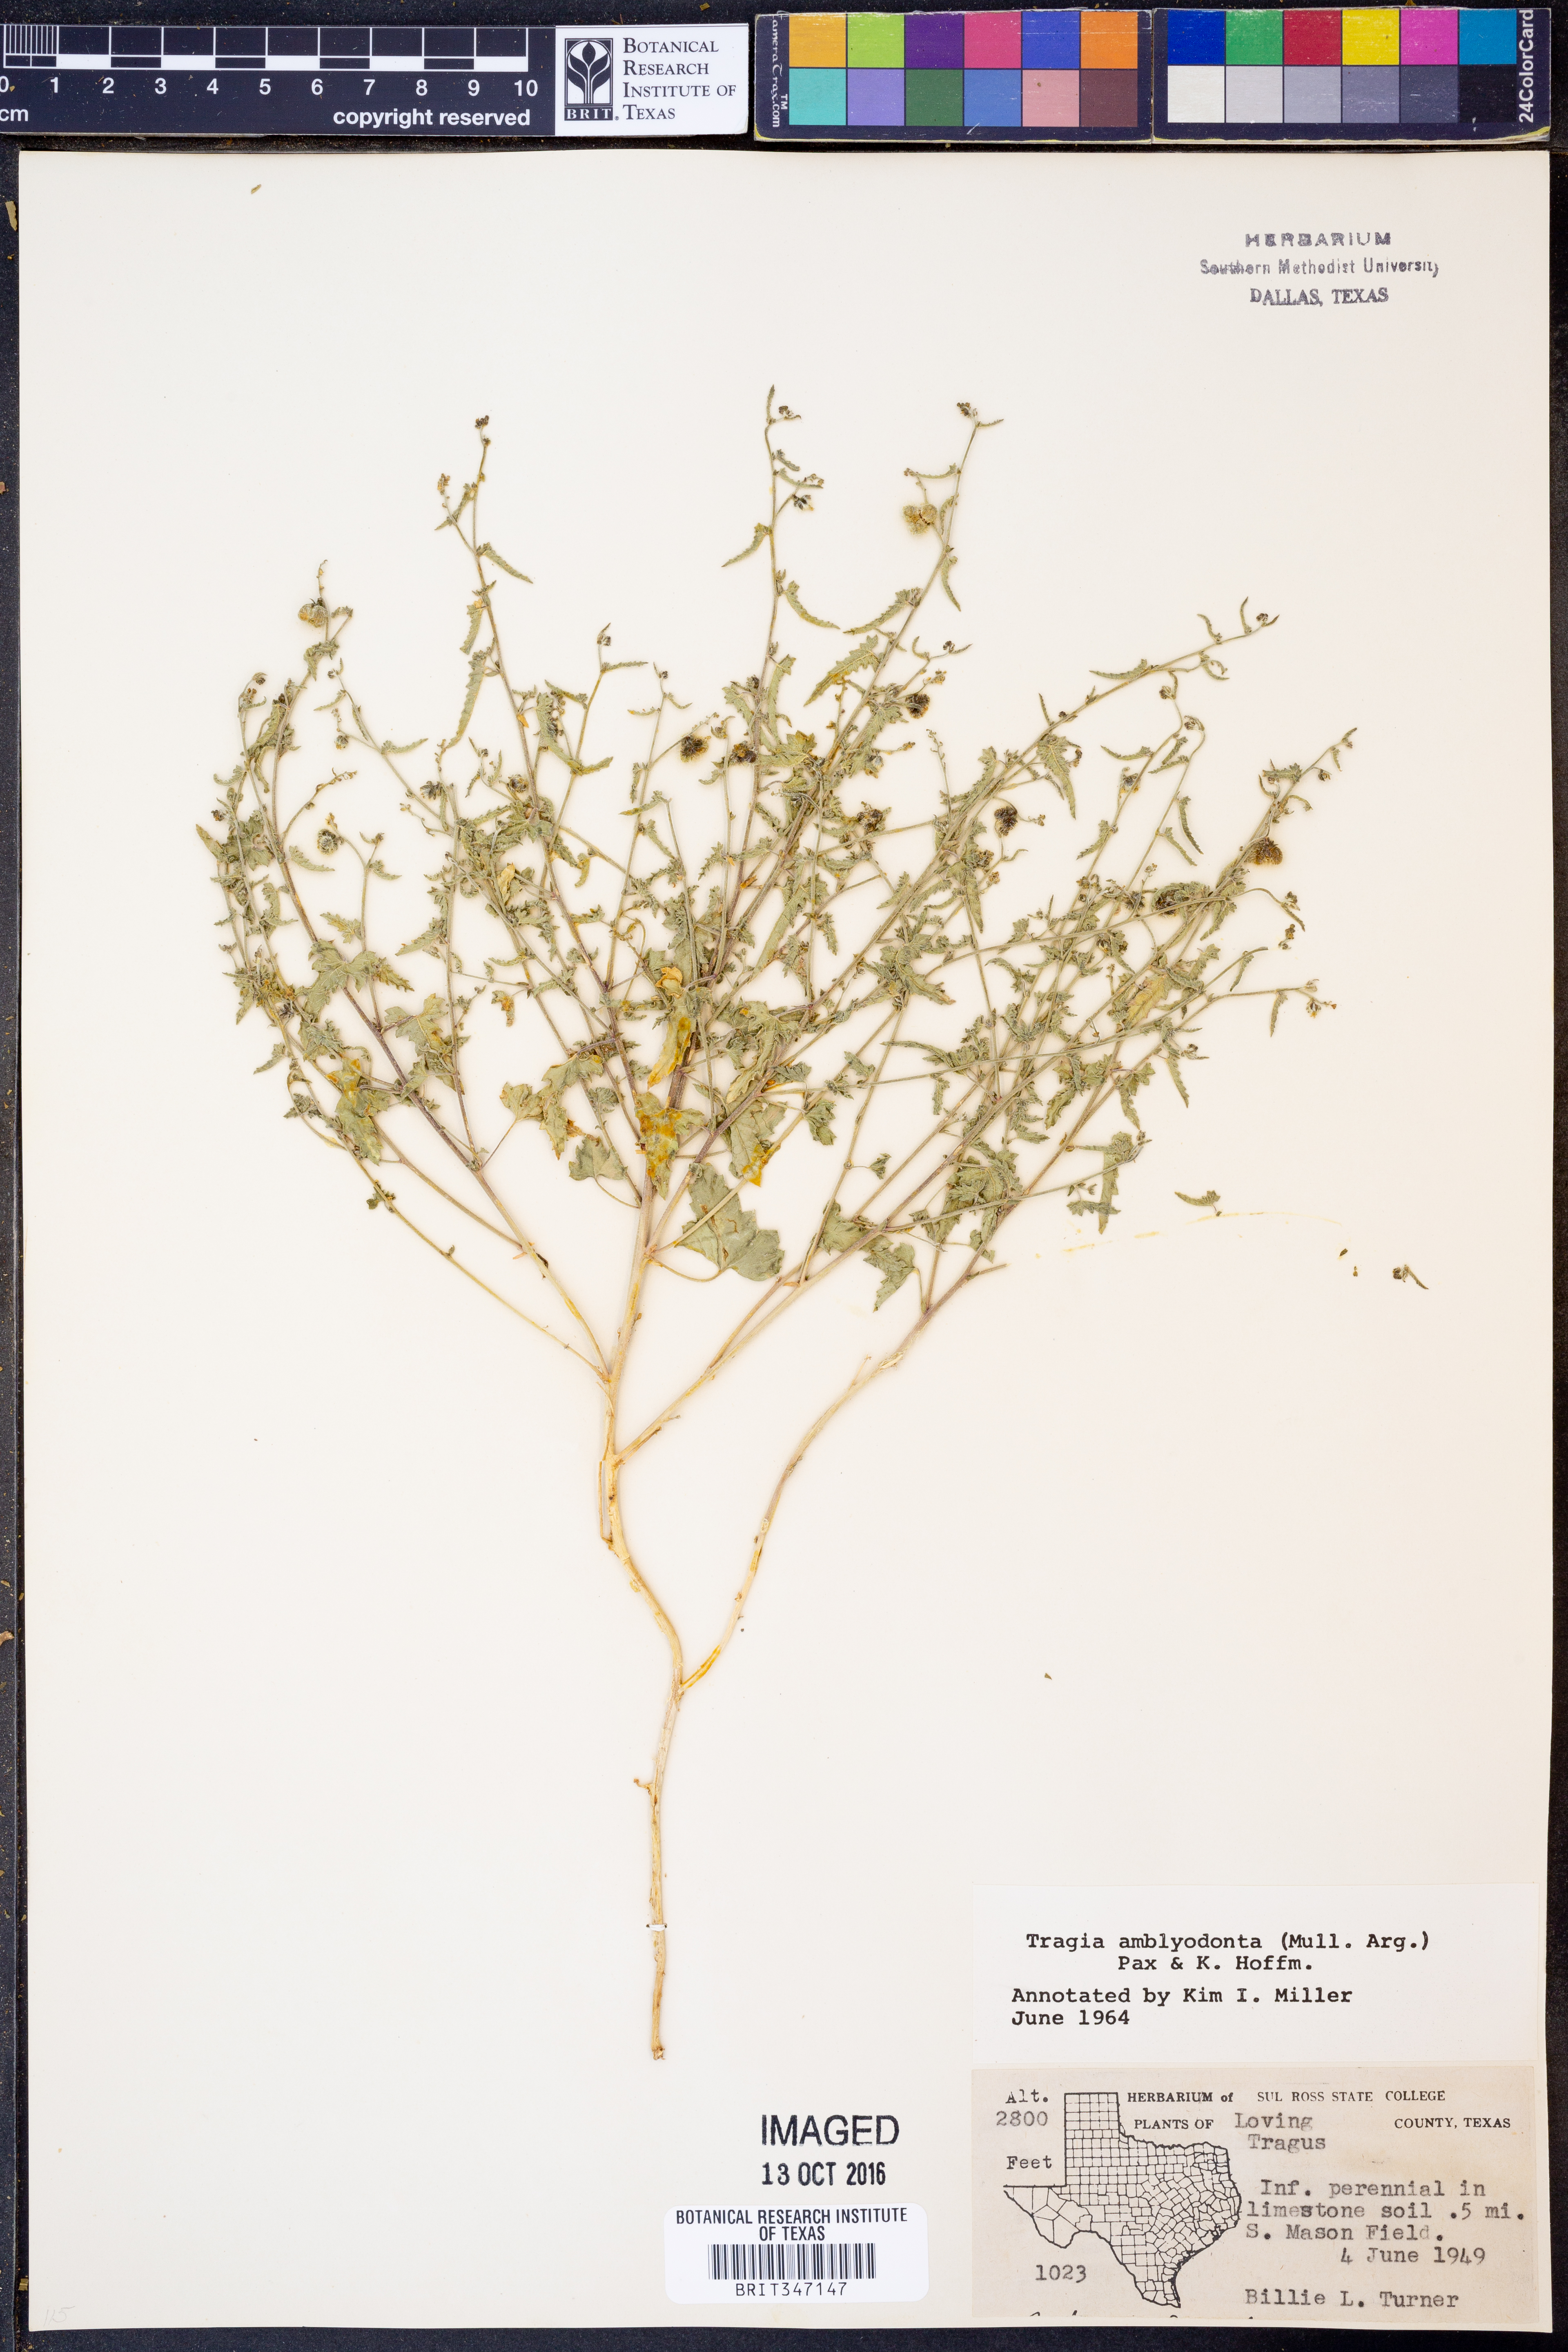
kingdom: Plantae
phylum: Tracheophyta
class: Magnoliopsida
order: Malpighiales
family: Euphorbiaceae
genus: Tragia
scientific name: Tragia amblyodonta
